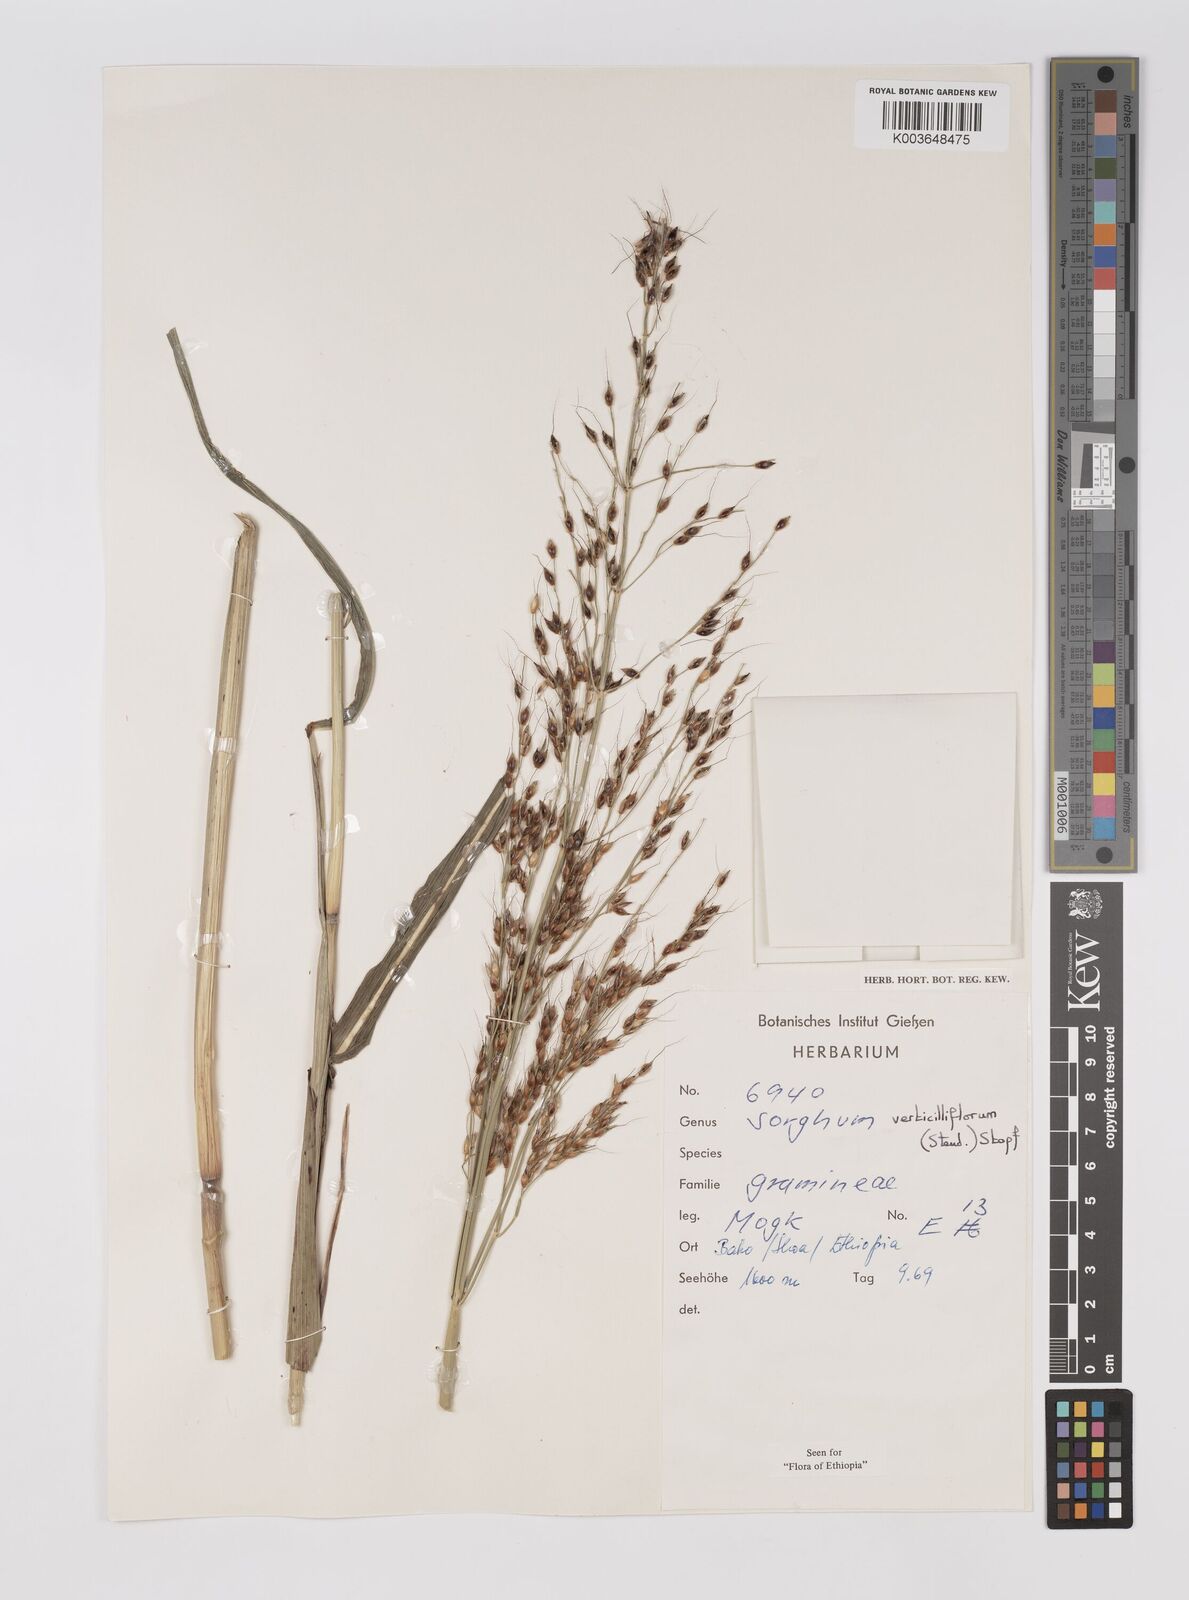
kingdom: Plantae
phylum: Tracheophyta
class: Liliopsida
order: Poales
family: Poaceae
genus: Sorghum
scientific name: Sorghum arundinaceum
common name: Sorghum
